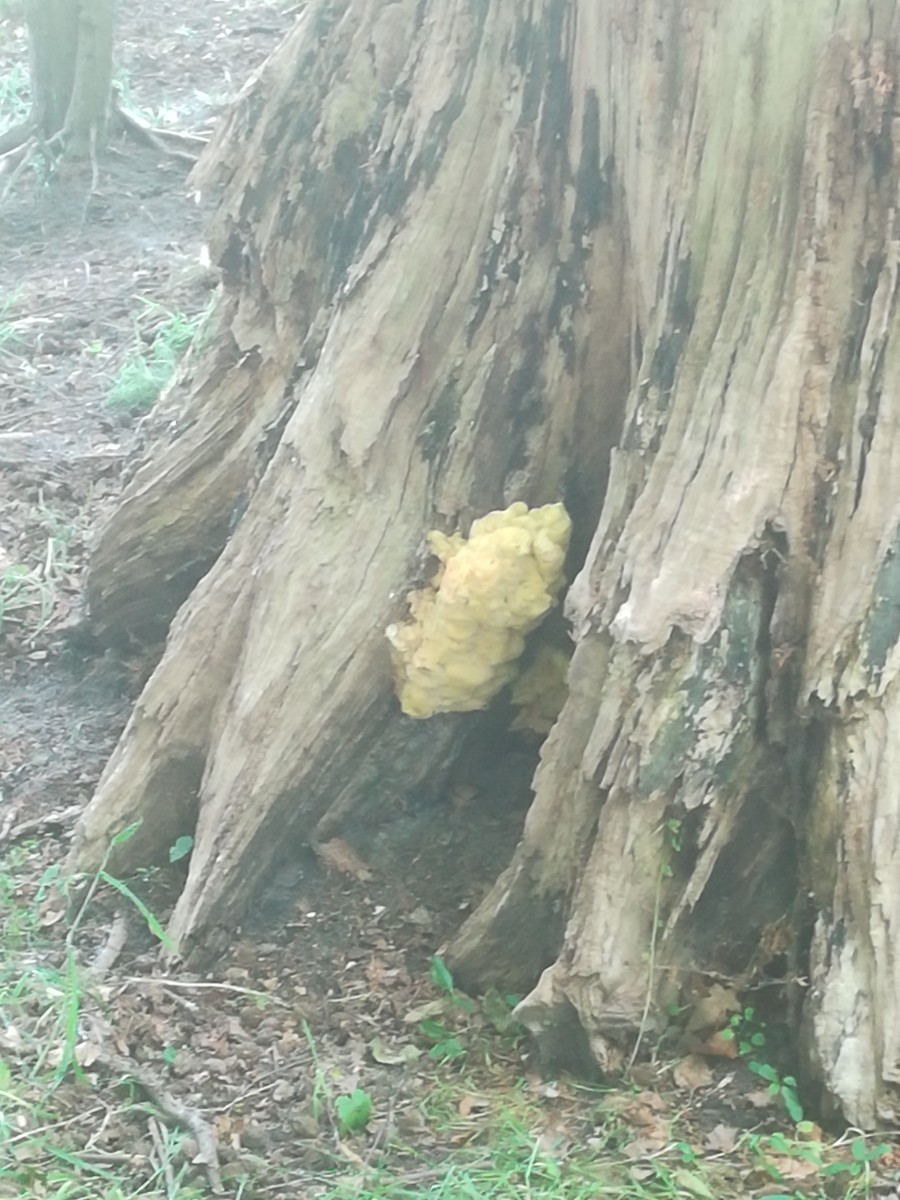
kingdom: Fungi
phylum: Basidiomycota
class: Agaricomycetes
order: Polyporales
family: Laetiporaceae
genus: Laetiporus
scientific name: Laetiporus
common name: svovlporesvamp
